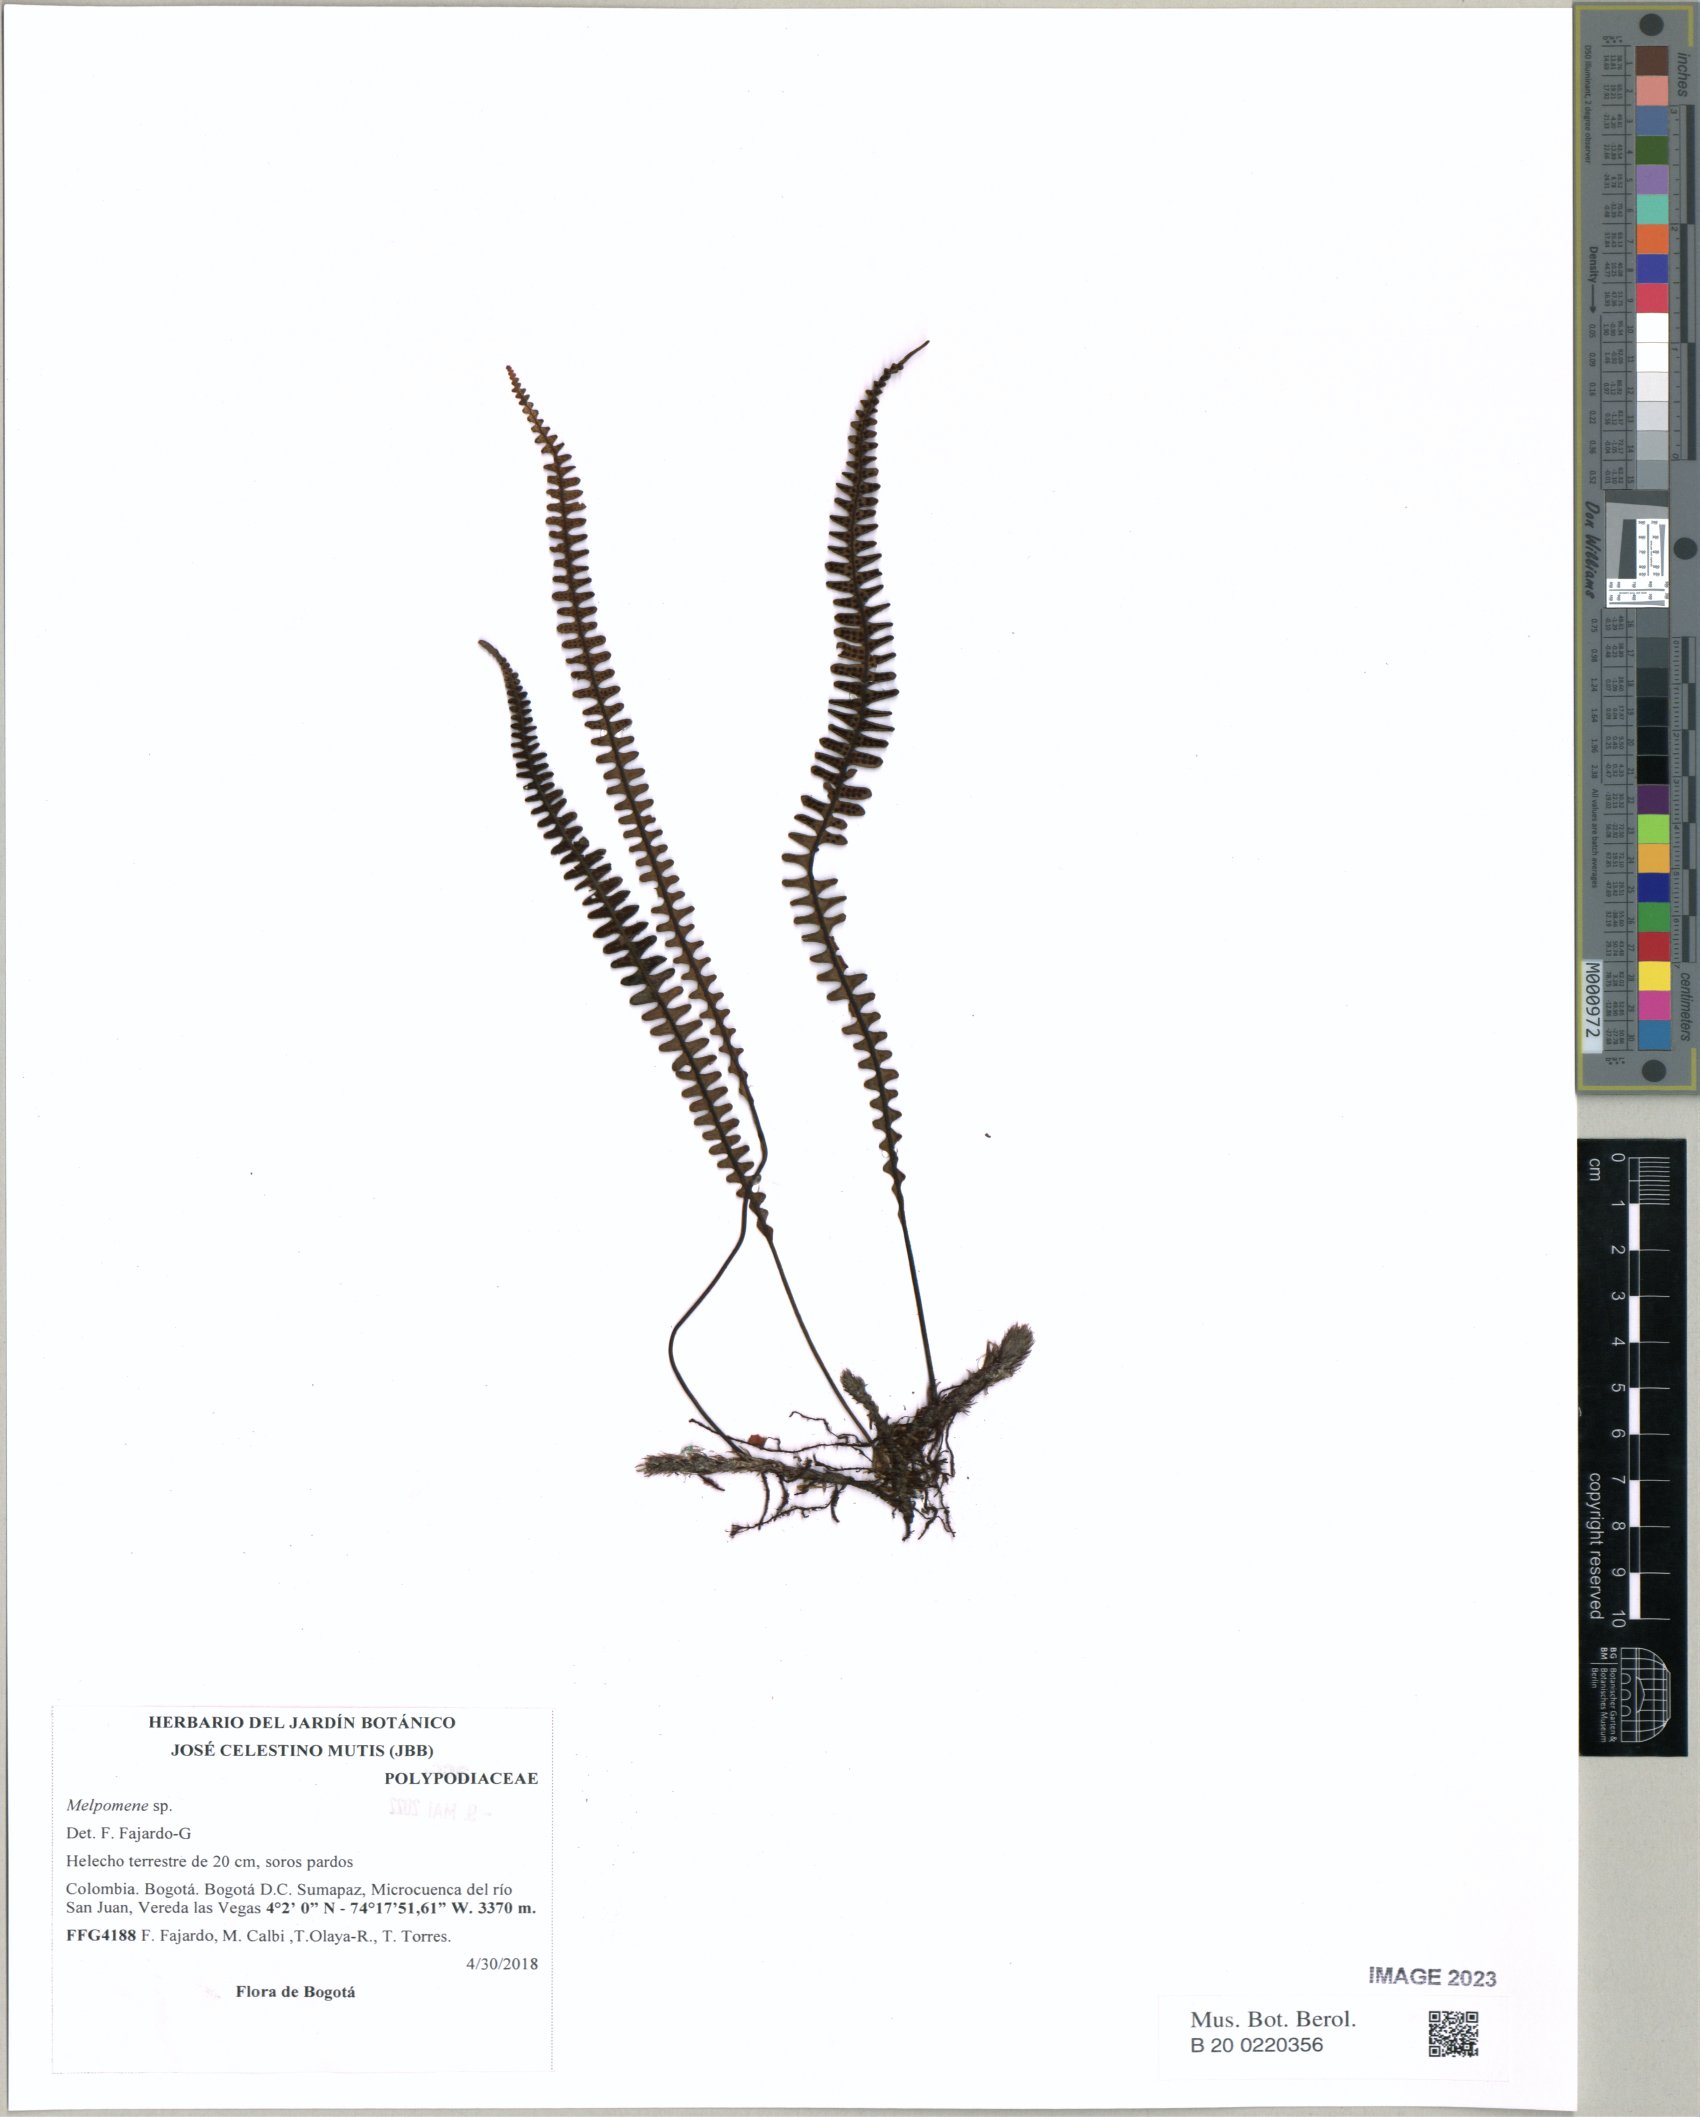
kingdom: Plantae
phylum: Tracheophyta
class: Polypodiopsida
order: Polypodiales
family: Polypodiaceae
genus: Melpomene
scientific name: Melpomene
